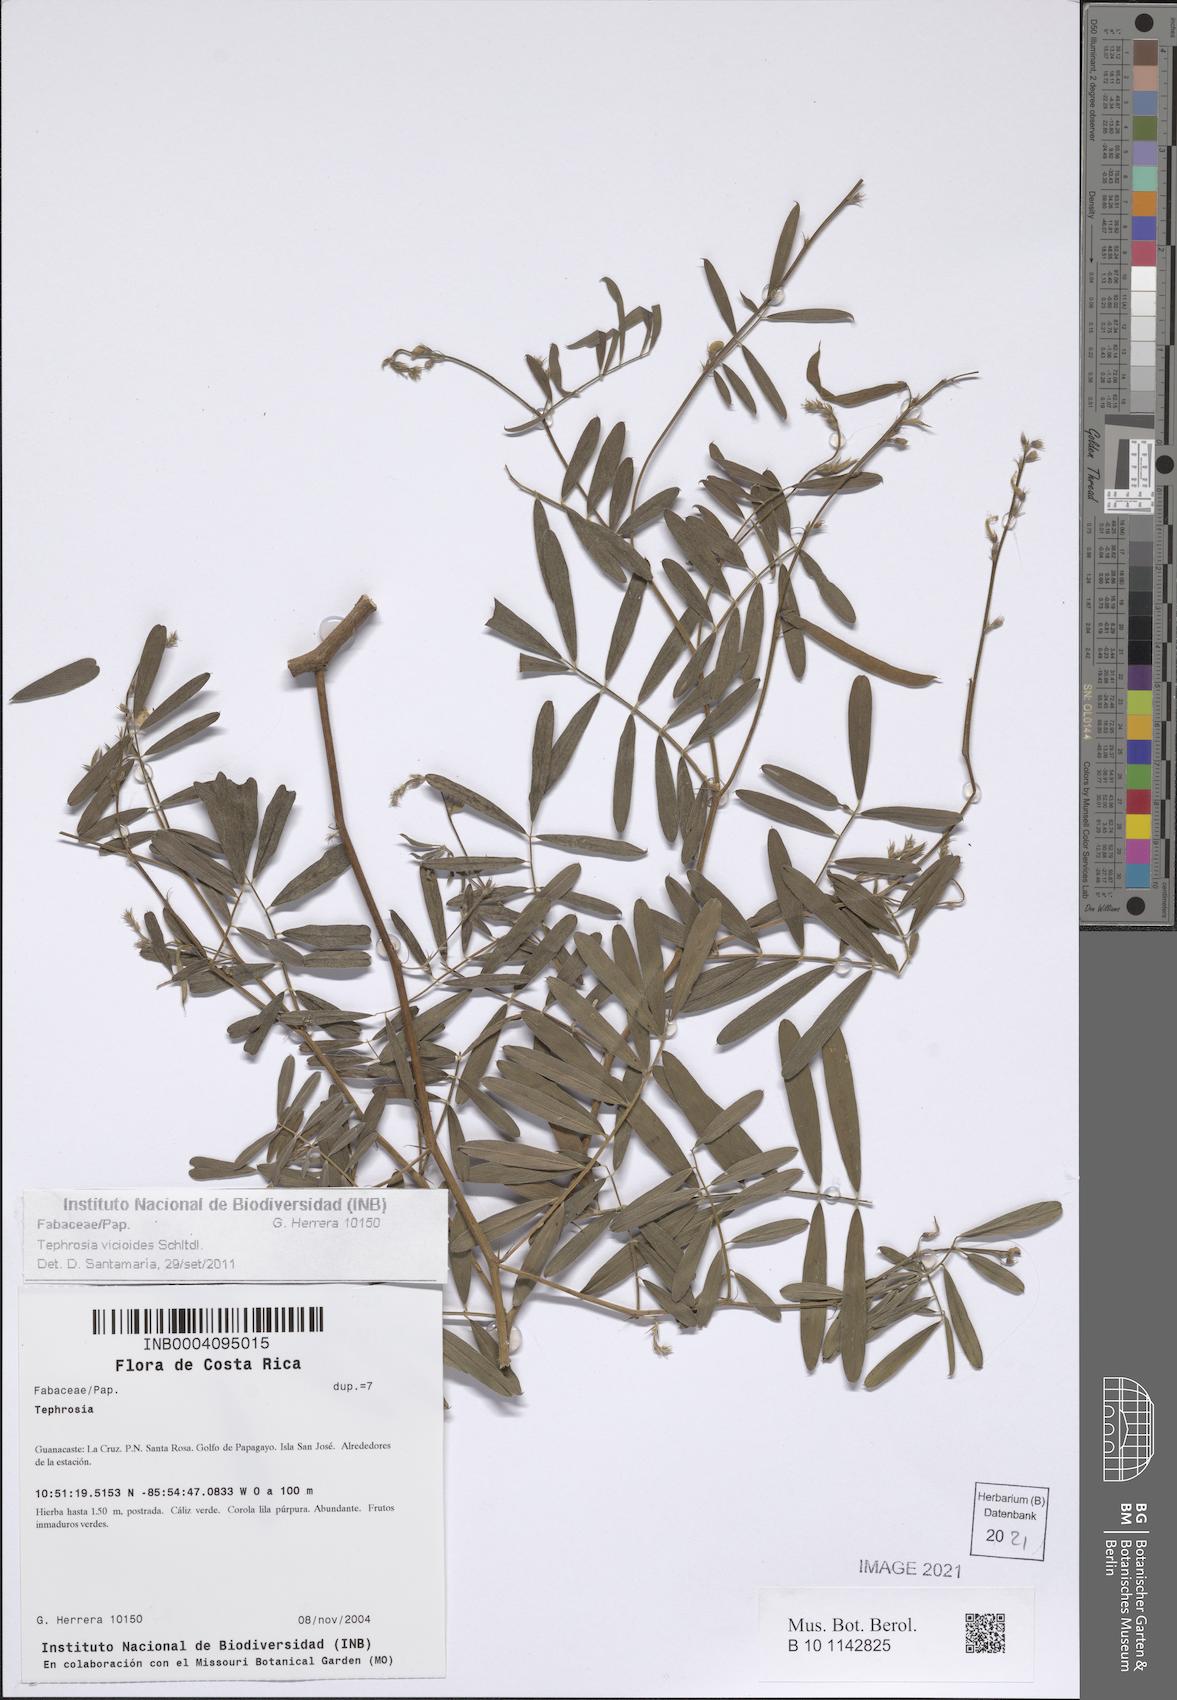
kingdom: Plantae
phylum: Tracheophyta
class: Magnoliopsida
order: Fabales
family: Fabaceae
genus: Tephrosia
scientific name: Tephrosia vicioides
